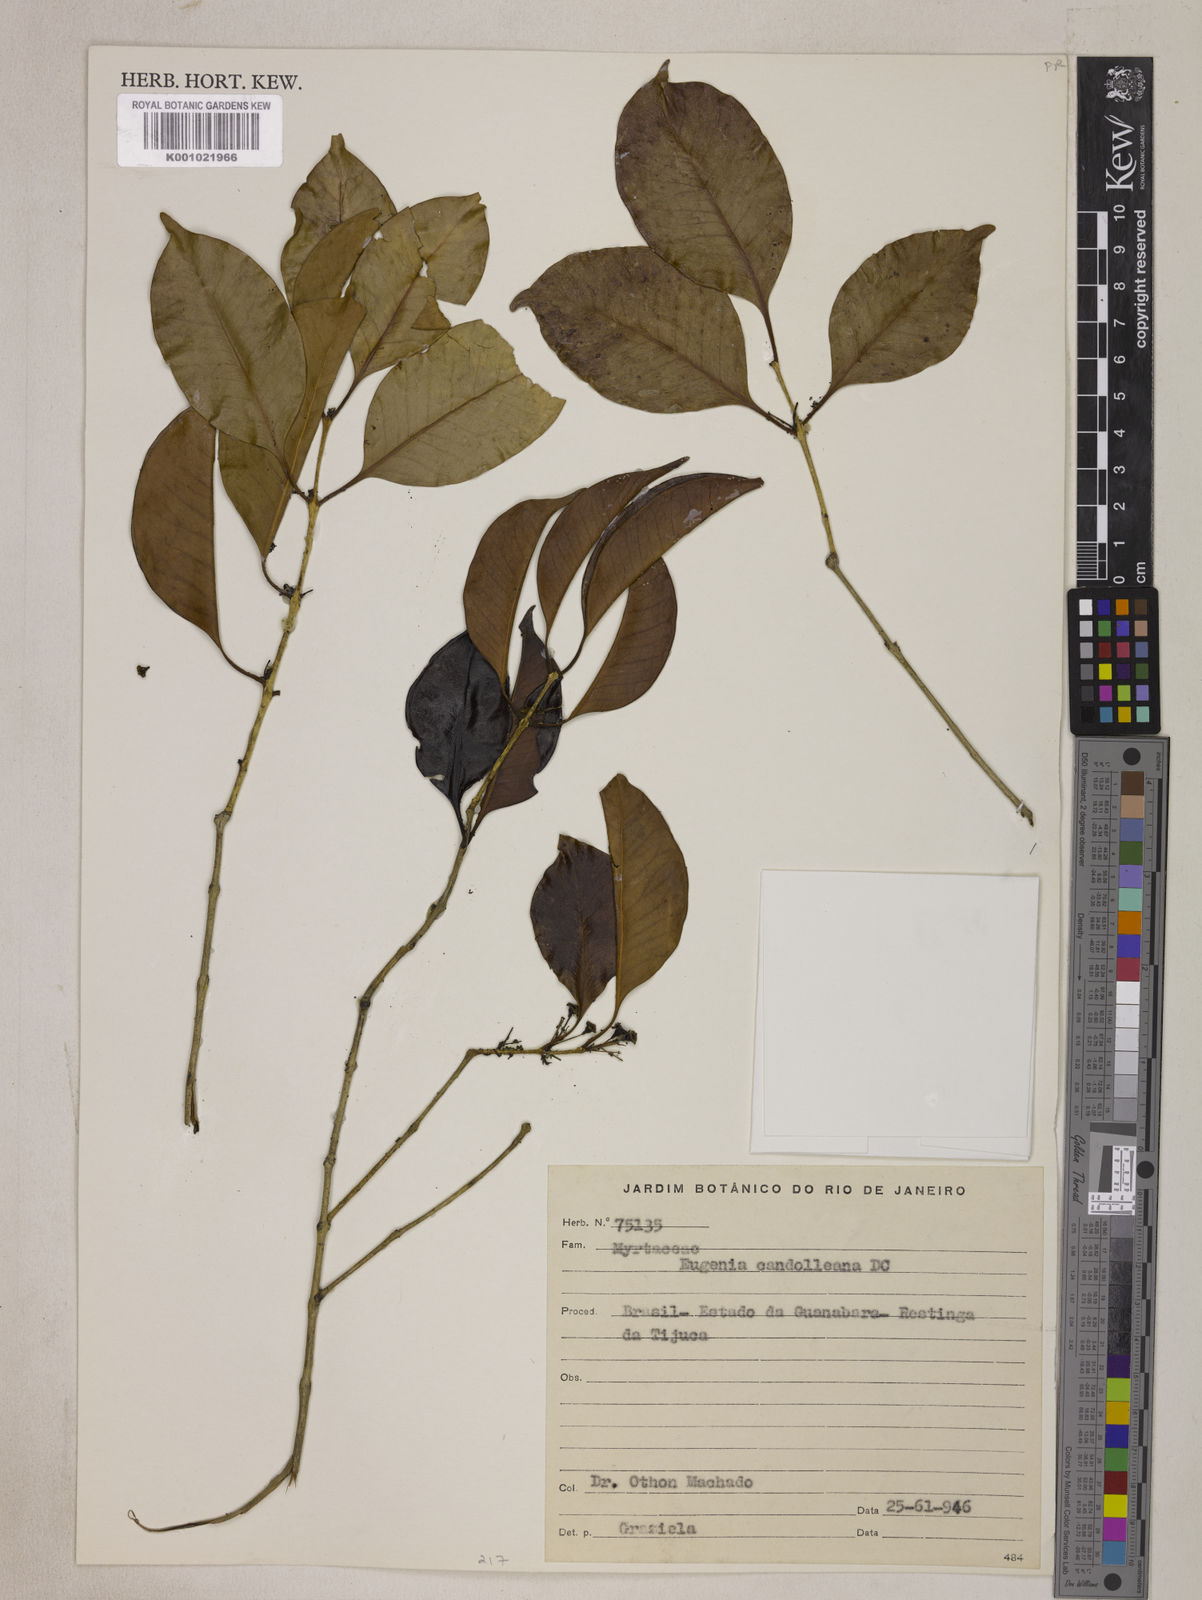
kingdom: Plantae
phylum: Tracheophyta
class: Magnoliopsida
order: Myrtales
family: Myrtaceae
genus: Eugenia
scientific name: Eugenia candolleana
